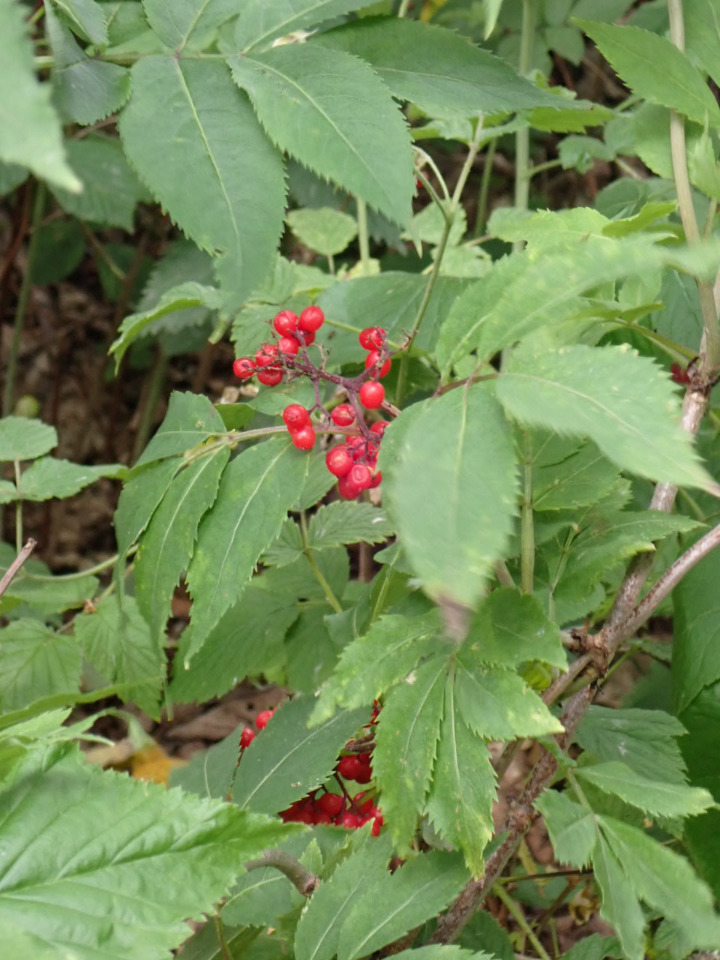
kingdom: Plantae
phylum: Tracheophyta
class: Magnoliopsida
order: Dipsacales
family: Viburnaceae
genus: Sambucus
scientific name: Sambucus racemosa
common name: Drue-hyld
